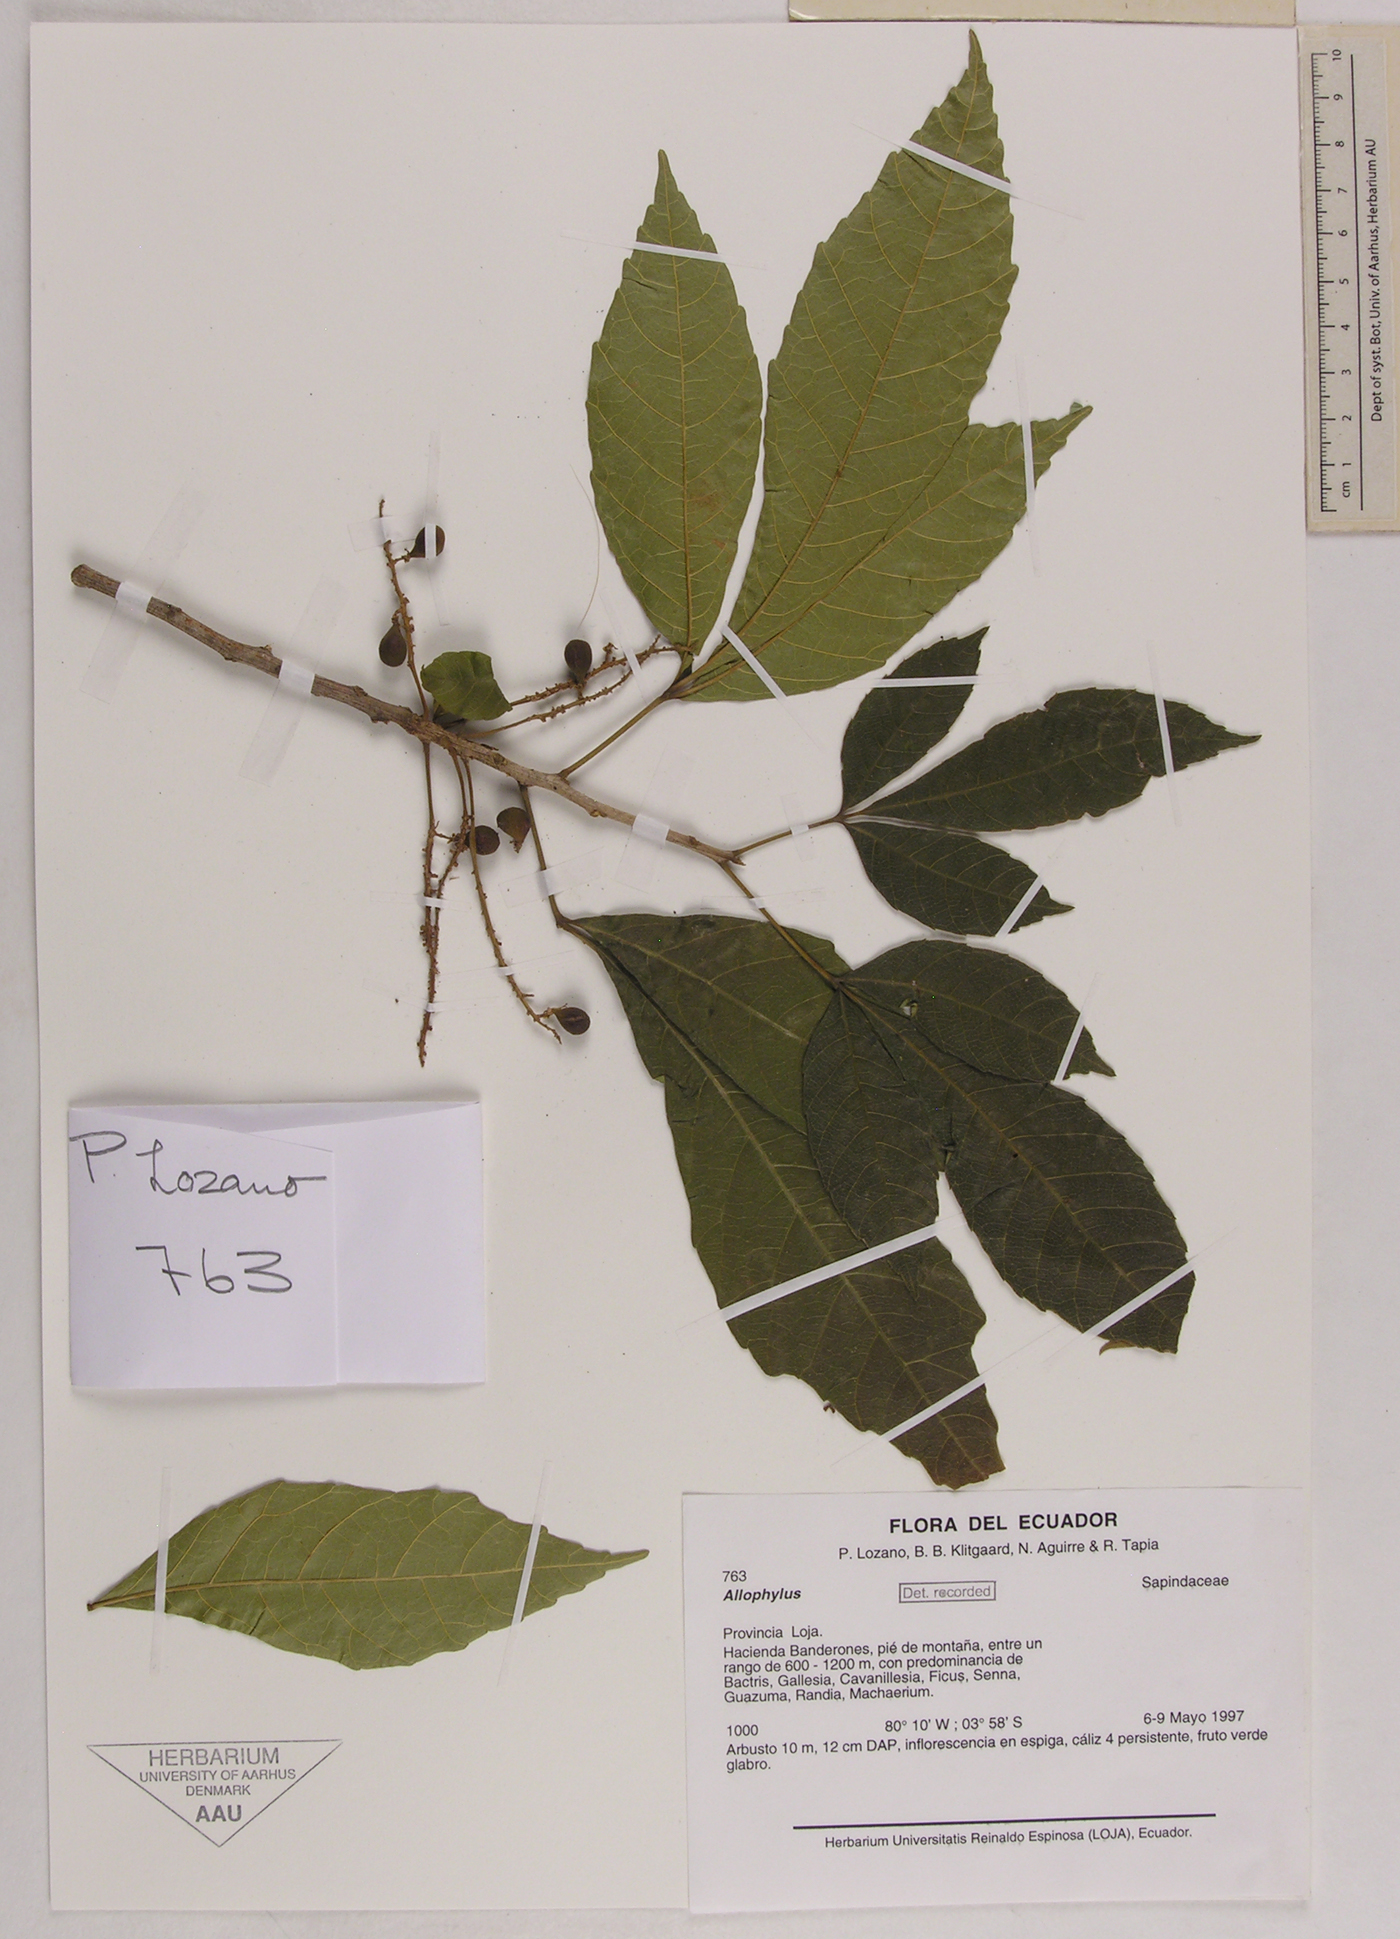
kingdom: Plantae
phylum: Tracheophyta
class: Magnoliopsida
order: Sapindales
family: Sapindaceae
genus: Allophylus
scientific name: Allophylus
